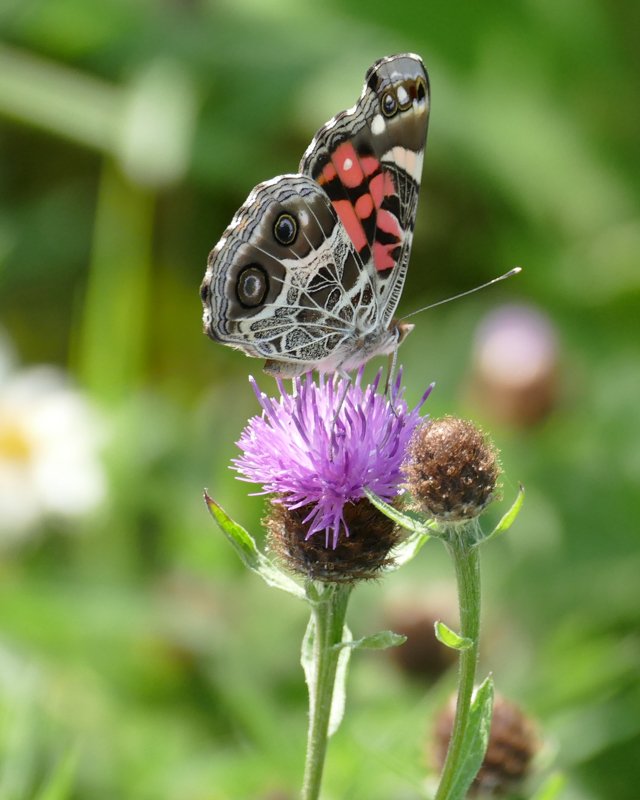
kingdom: Animalia
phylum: Arthropoda
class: Insecta
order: Lepidoptera
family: Nymphalidae
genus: Vanessa
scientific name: Vanessa virginiensis
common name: American Lady
